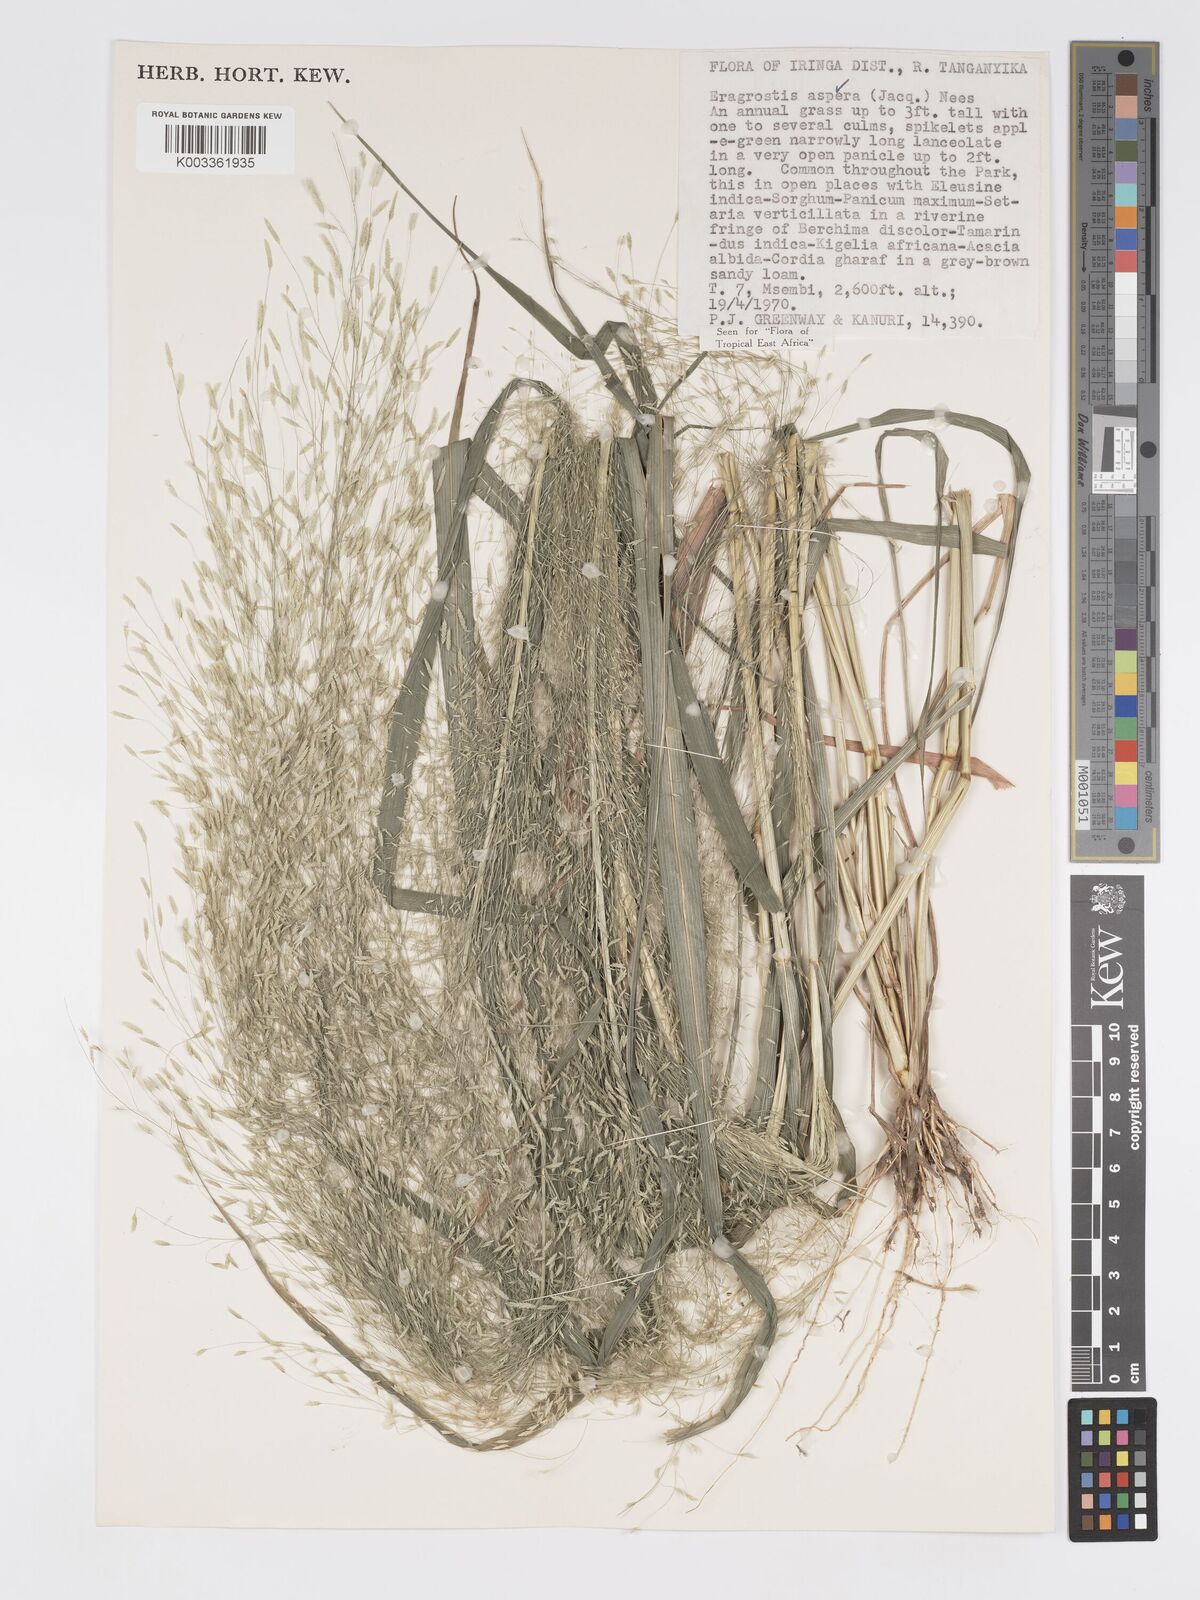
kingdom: Plantae
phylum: Tracheophyta
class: Liliopsida
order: Poales
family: Poaceae
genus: Eragrostis
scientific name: Eragrostis aspera
